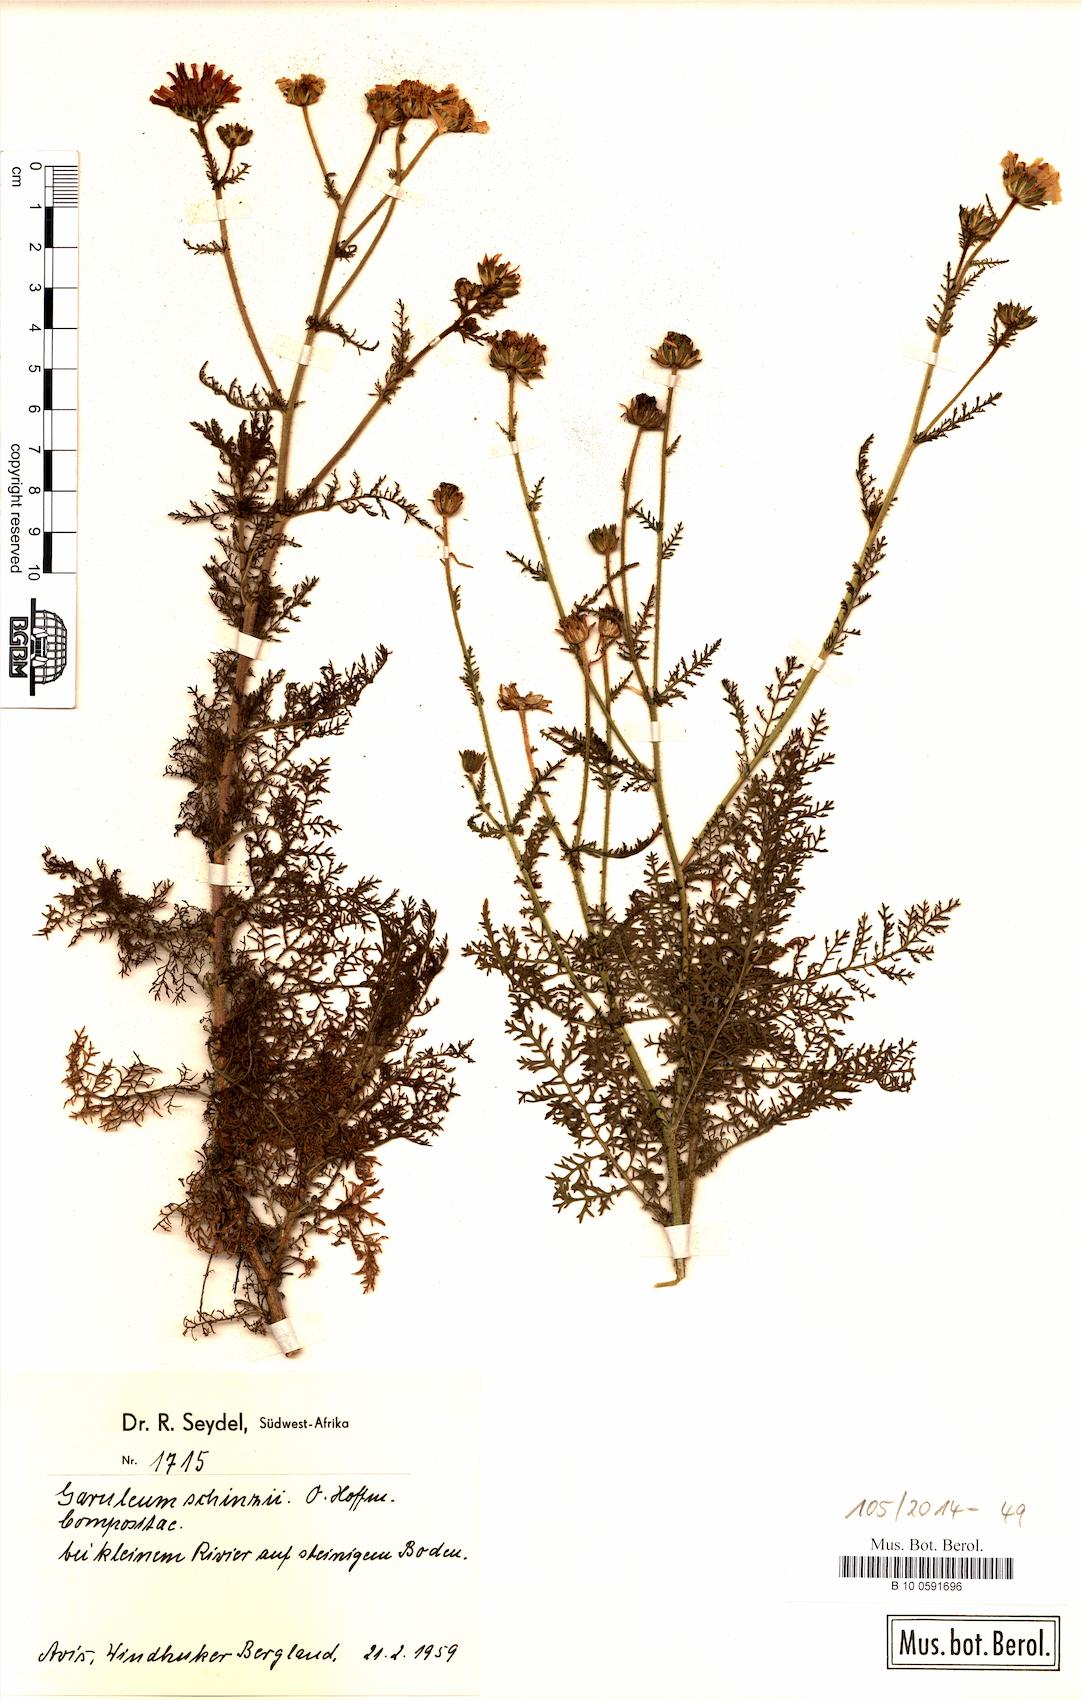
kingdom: Plantae
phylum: Tracheophyta
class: Magnoliopsida
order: Asterales
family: Asteraceae
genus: Garuleum
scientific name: Garuleum schinzii
